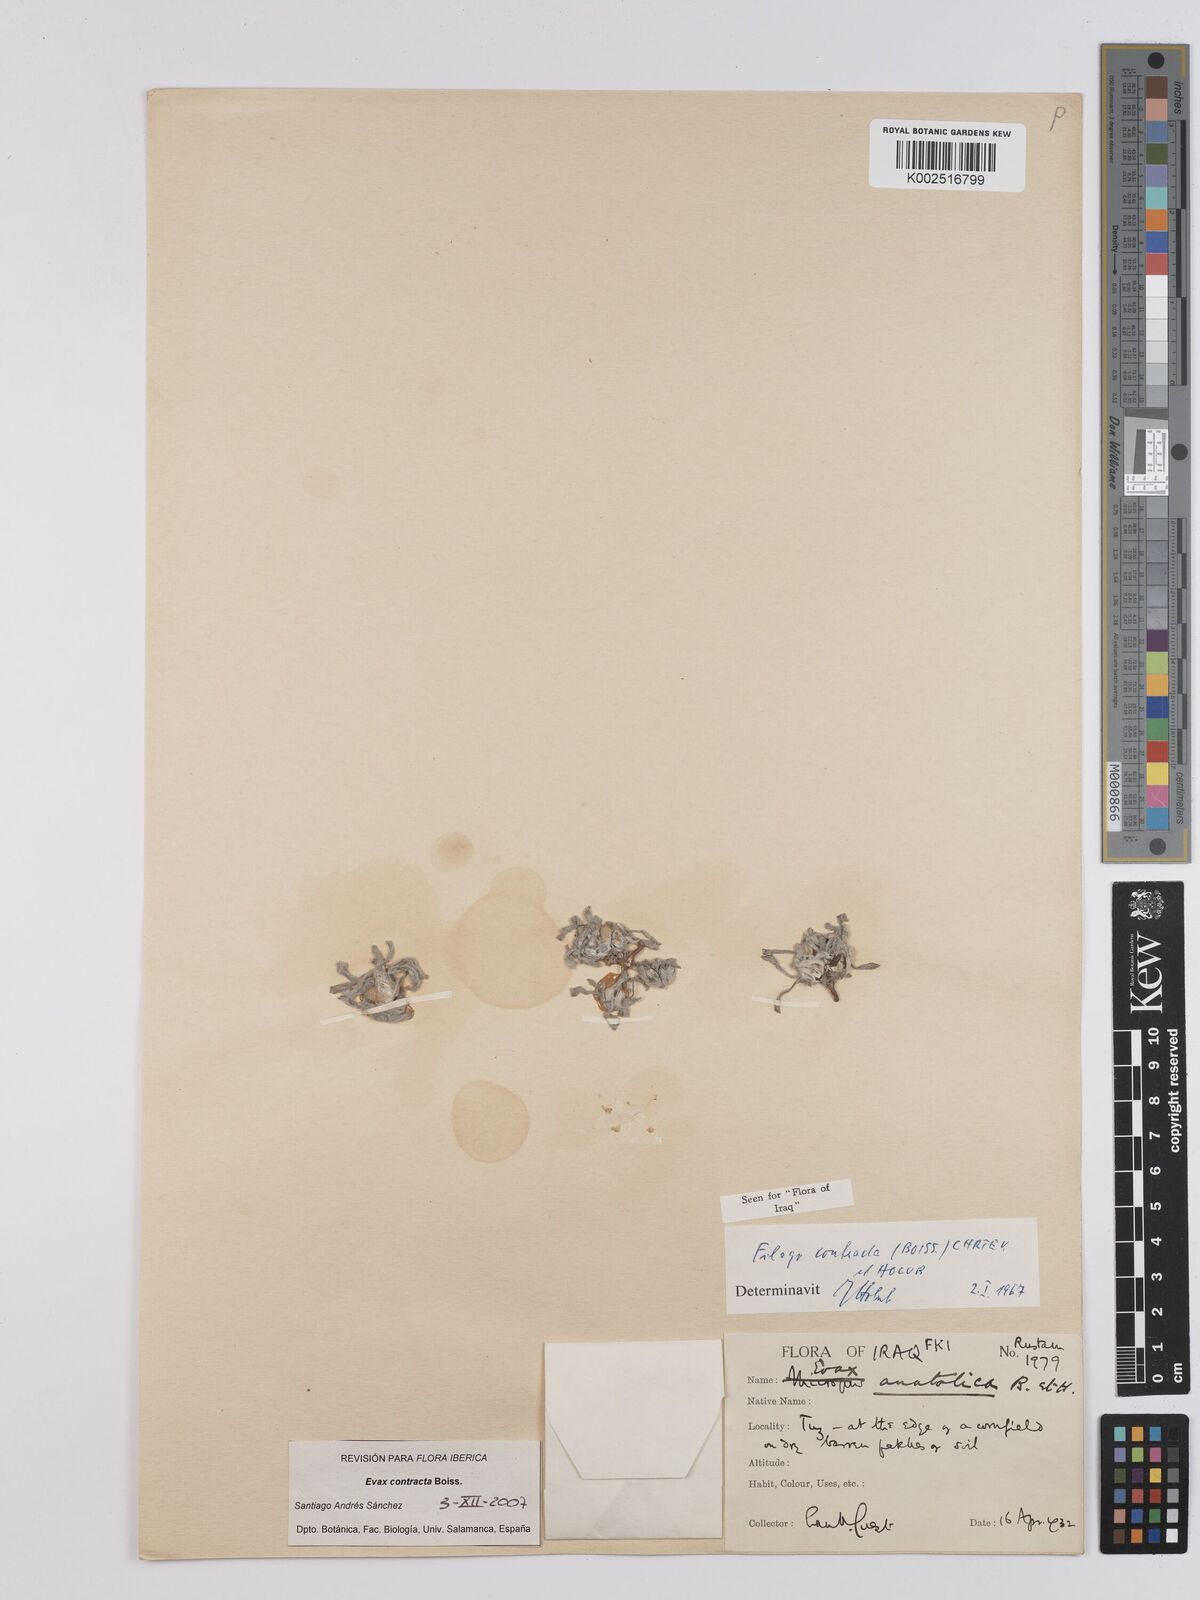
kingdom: Plantae
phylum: Tracheophyta
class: Magnoliopsida
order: Asterales
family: Asteraceae
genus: Filago
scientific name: Filago contracta
